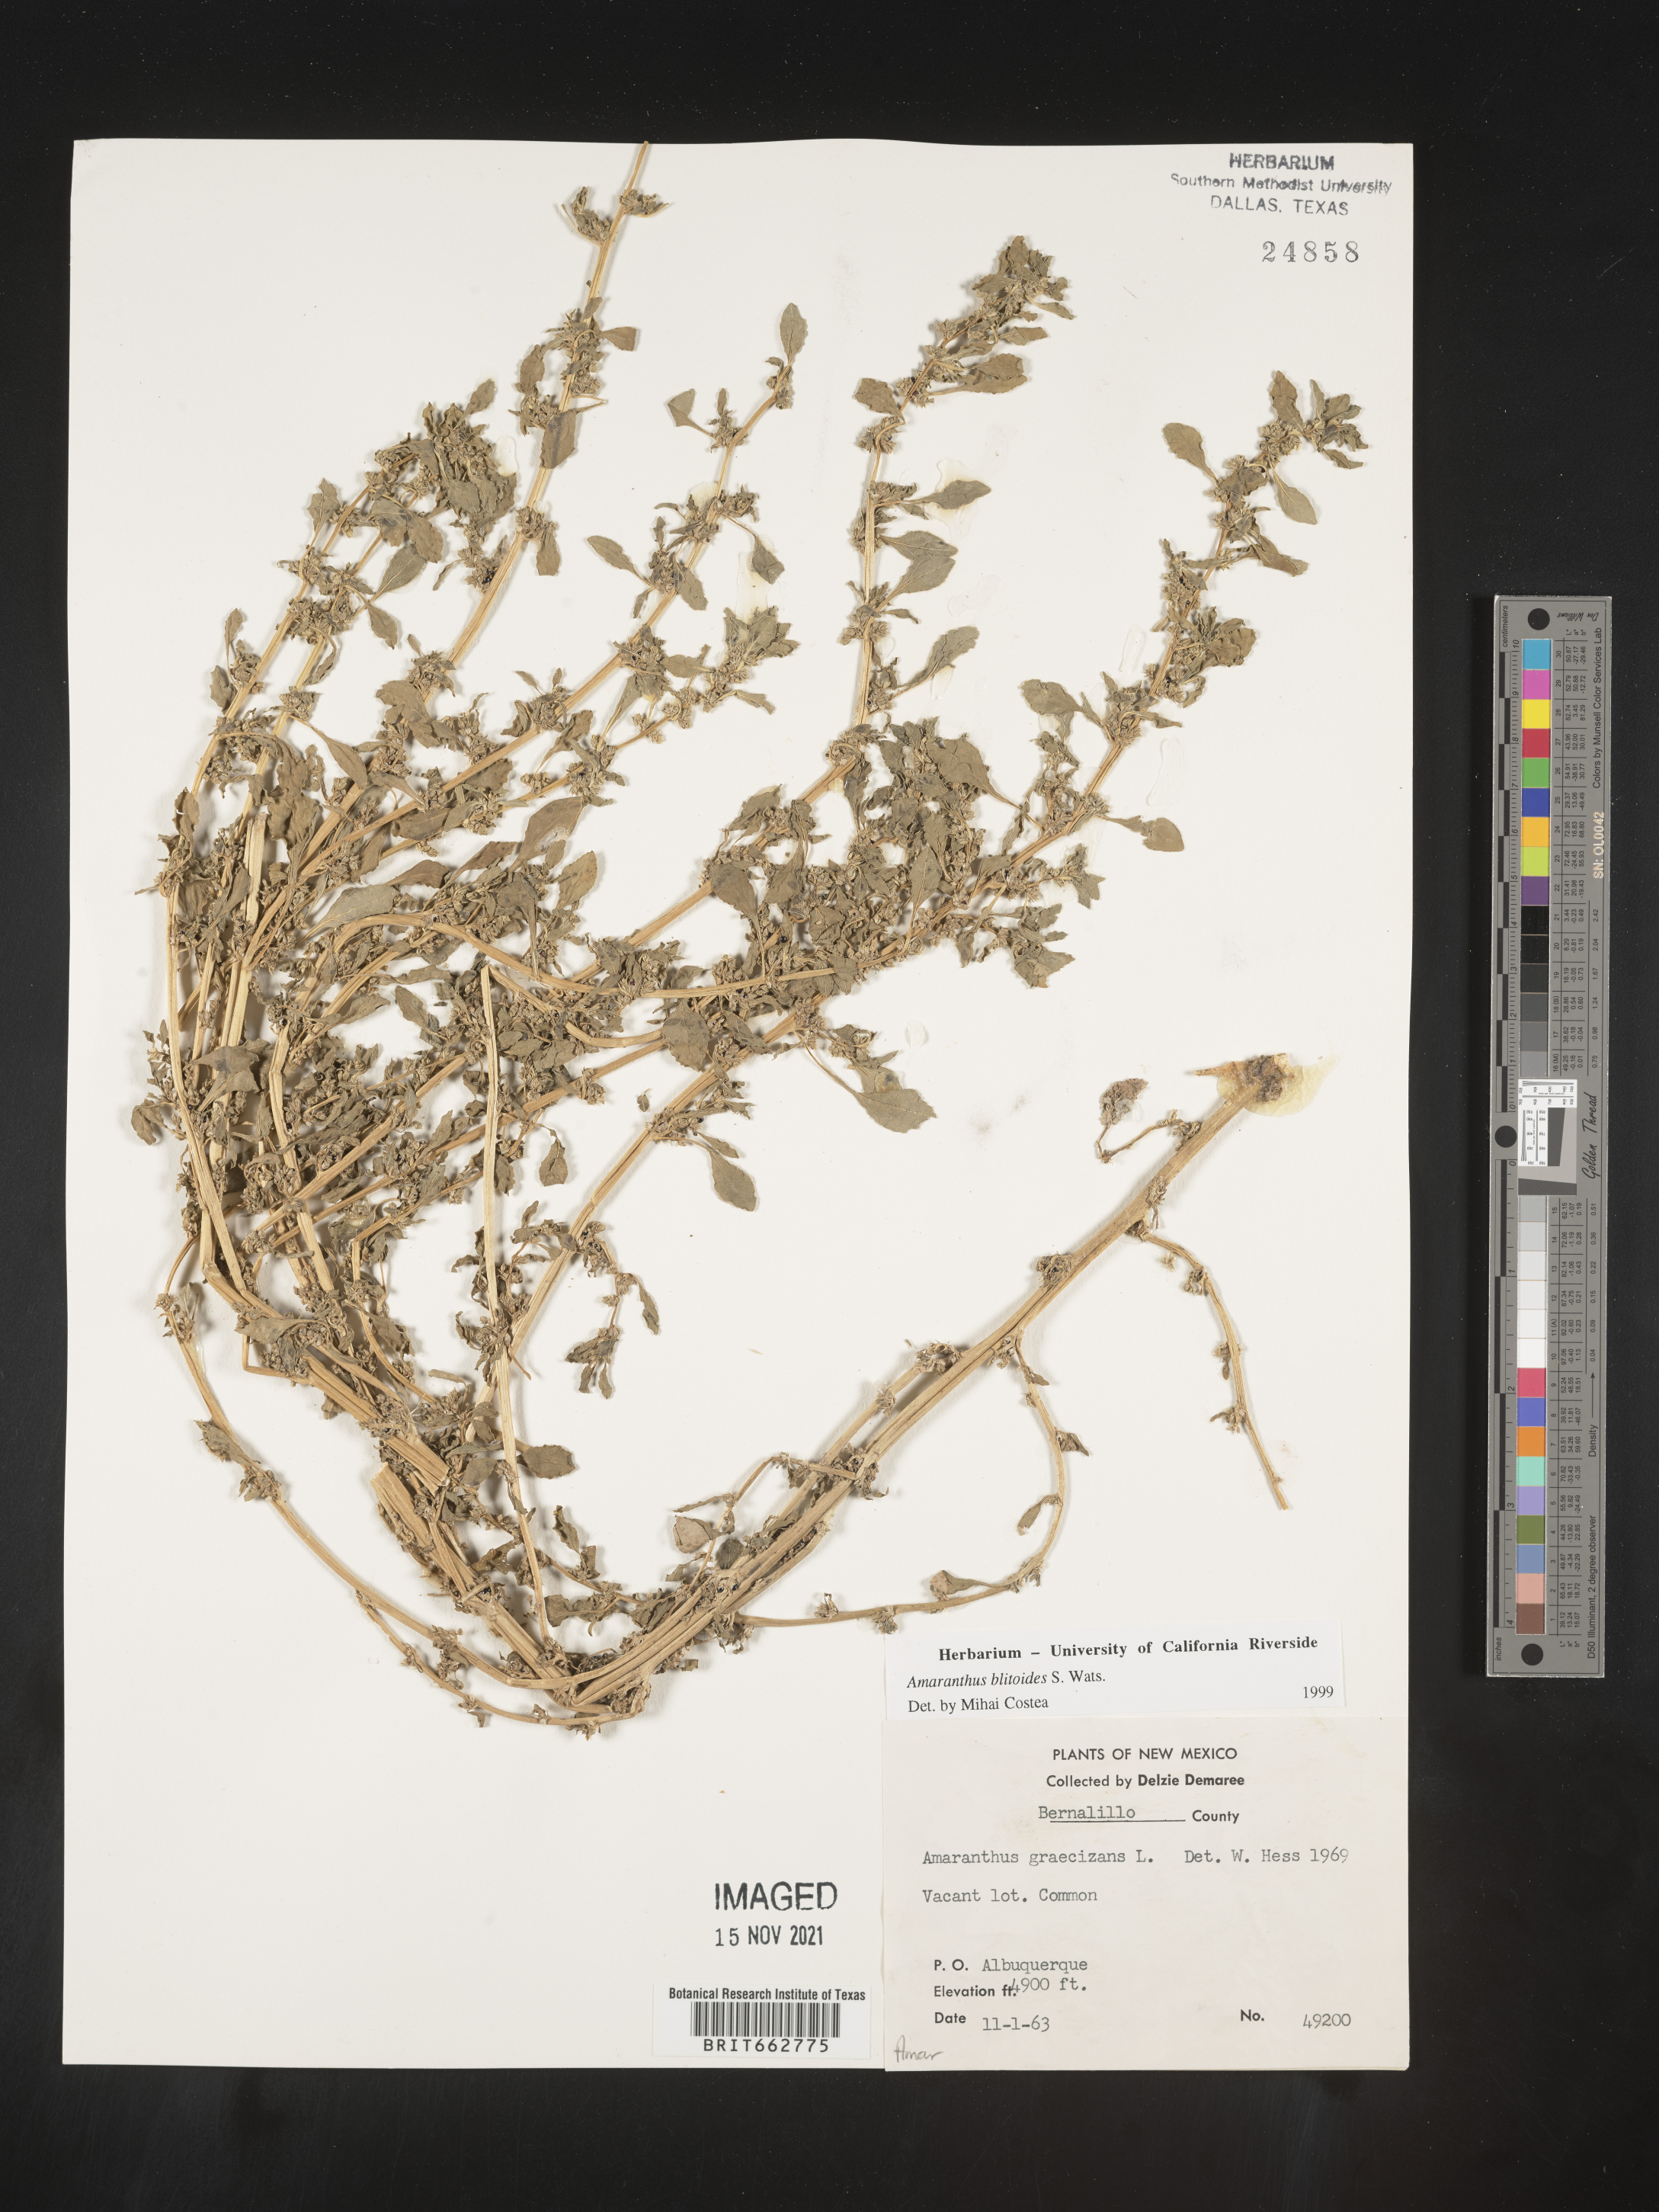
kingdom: Plantae
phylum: Tracheophyta
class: Magnoliopsida
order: Caryophyllales
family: Amaranthaceae
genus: Amaranthus
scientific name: Amaranthus blitoides
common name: Prostrate pigweed
